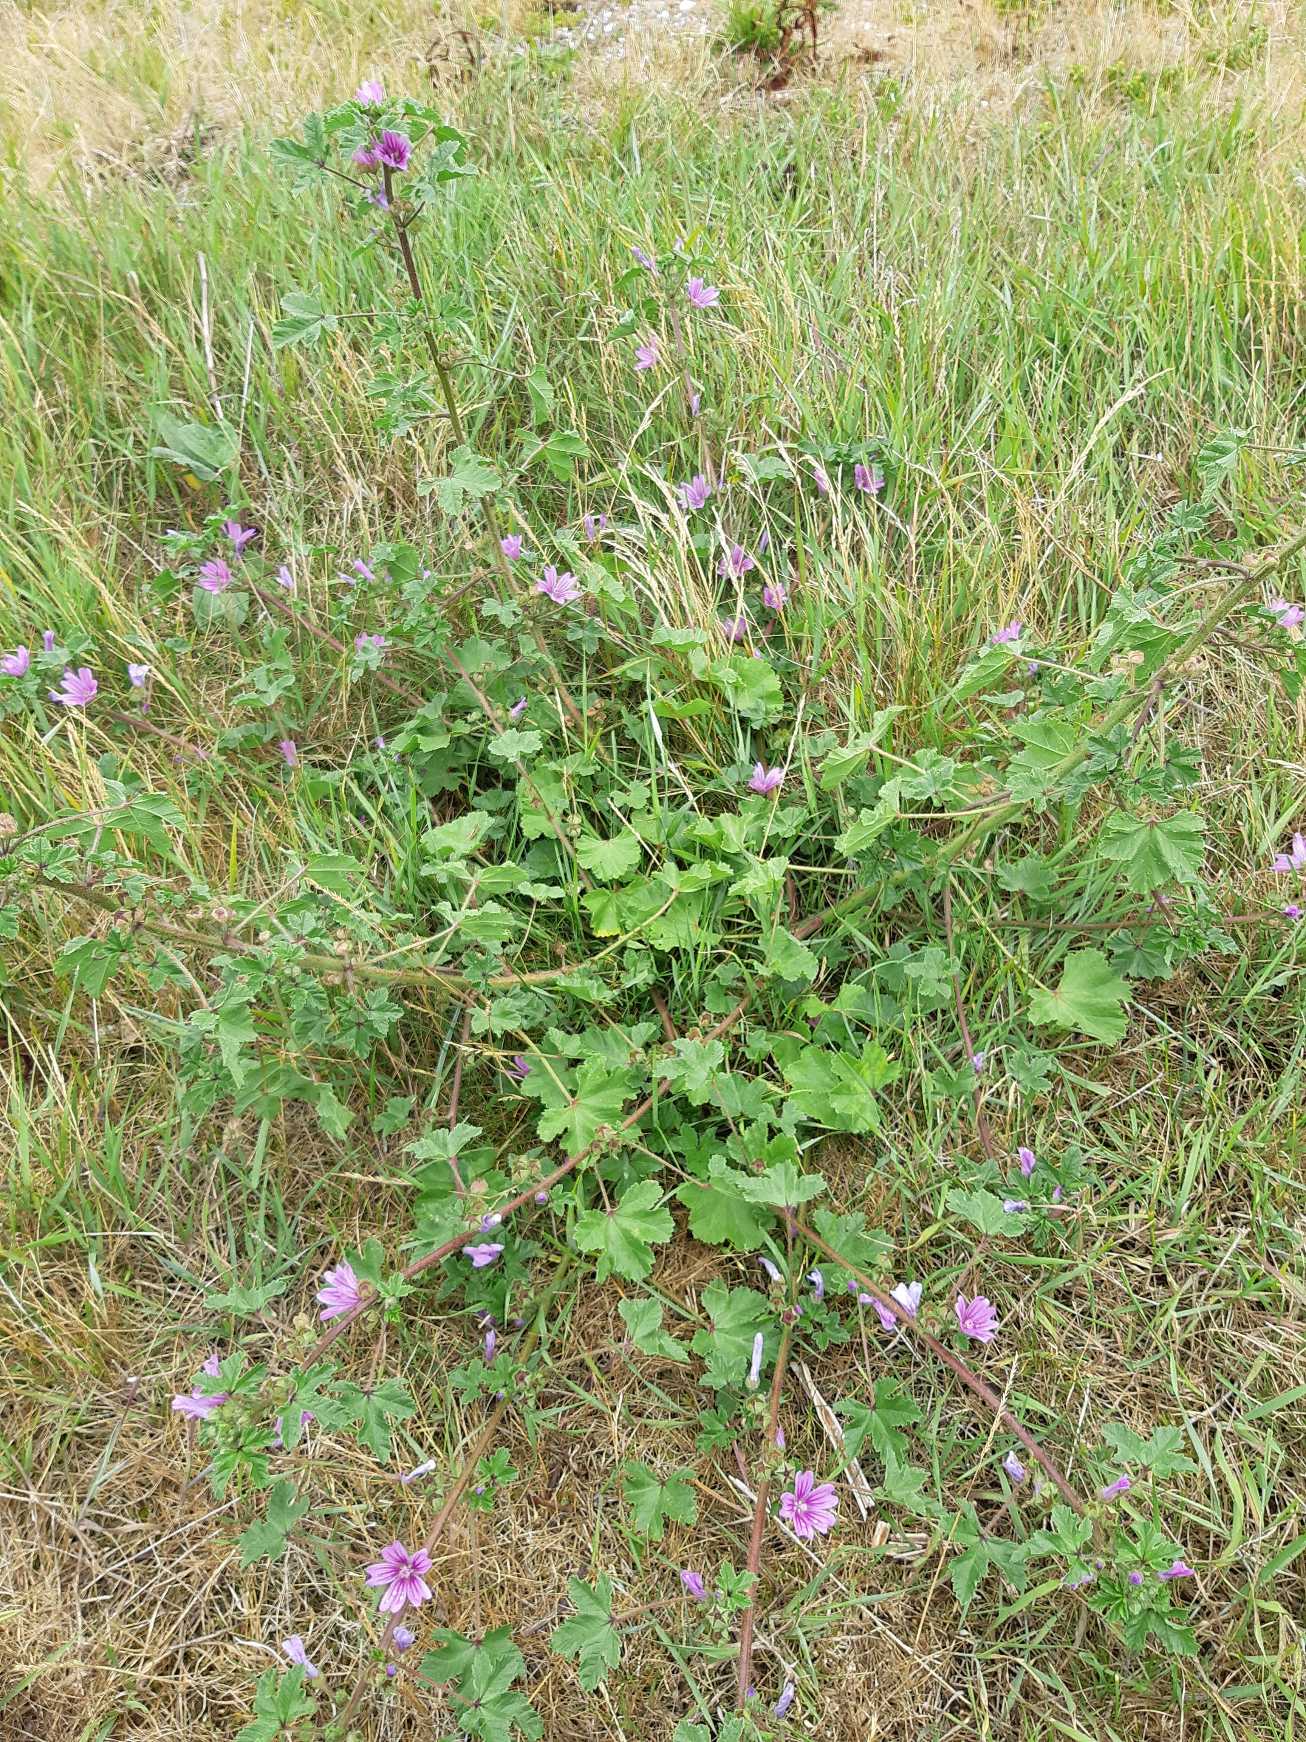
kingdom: Plantae
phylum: Tracheophyta
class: Magnoliopsida
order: Malvales
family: Malvaceae
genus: Malva
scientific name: Malva sylvestris
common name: Almindelig katost
